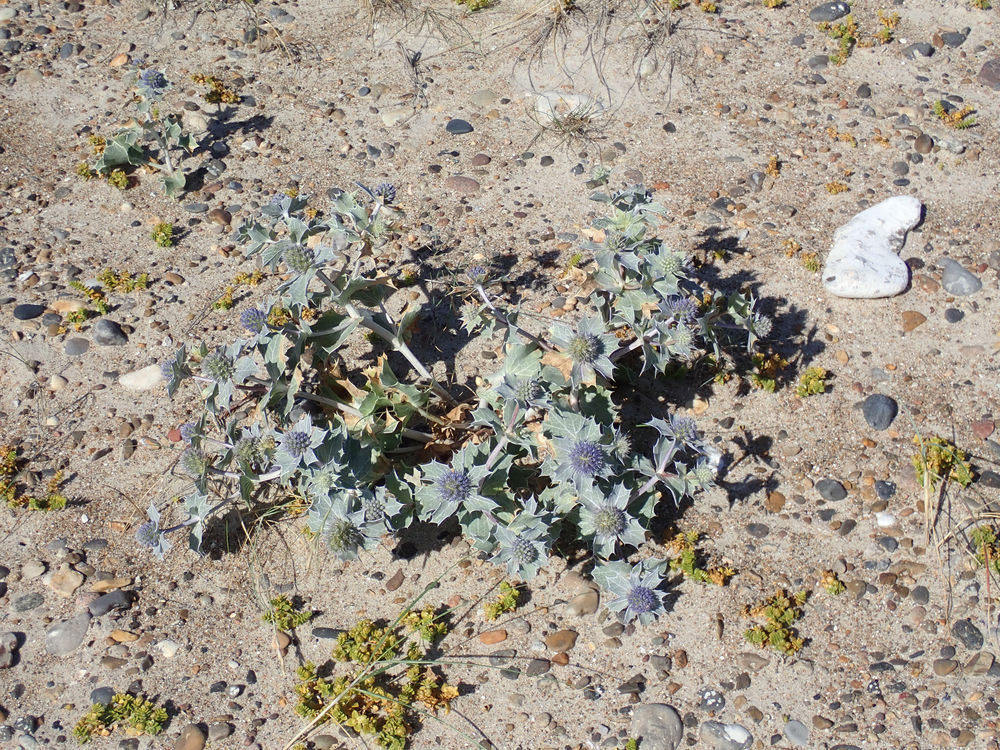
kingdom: Plantae
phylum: Tracheophyta
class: Magnoliopsida
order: Apiales
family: Apiaceae
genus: Eryngium
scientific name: Eryngium maritimum
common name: Strand-mandstro
